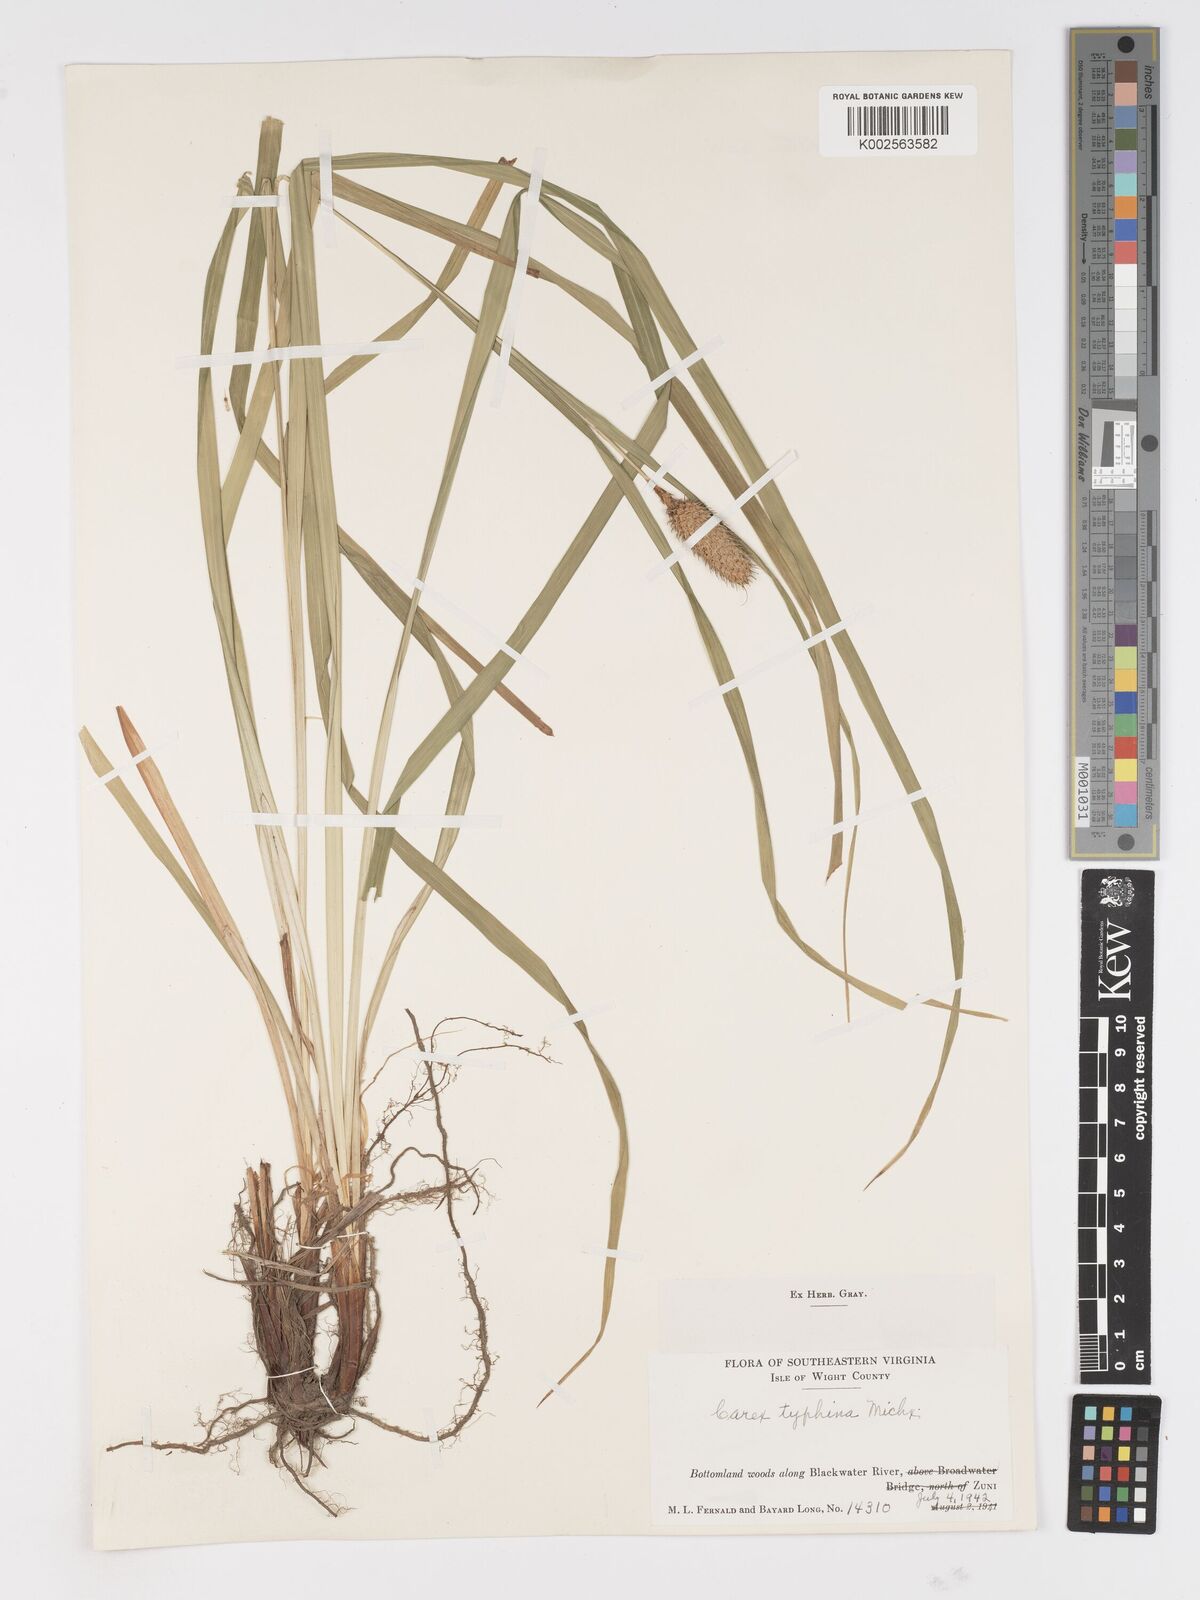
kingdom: Plantae
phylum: Tracheophyta
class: Liliopsida
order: Poales
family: Cyperaceae
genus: Carex
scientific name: Carex typhina
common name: Cattail sedge
